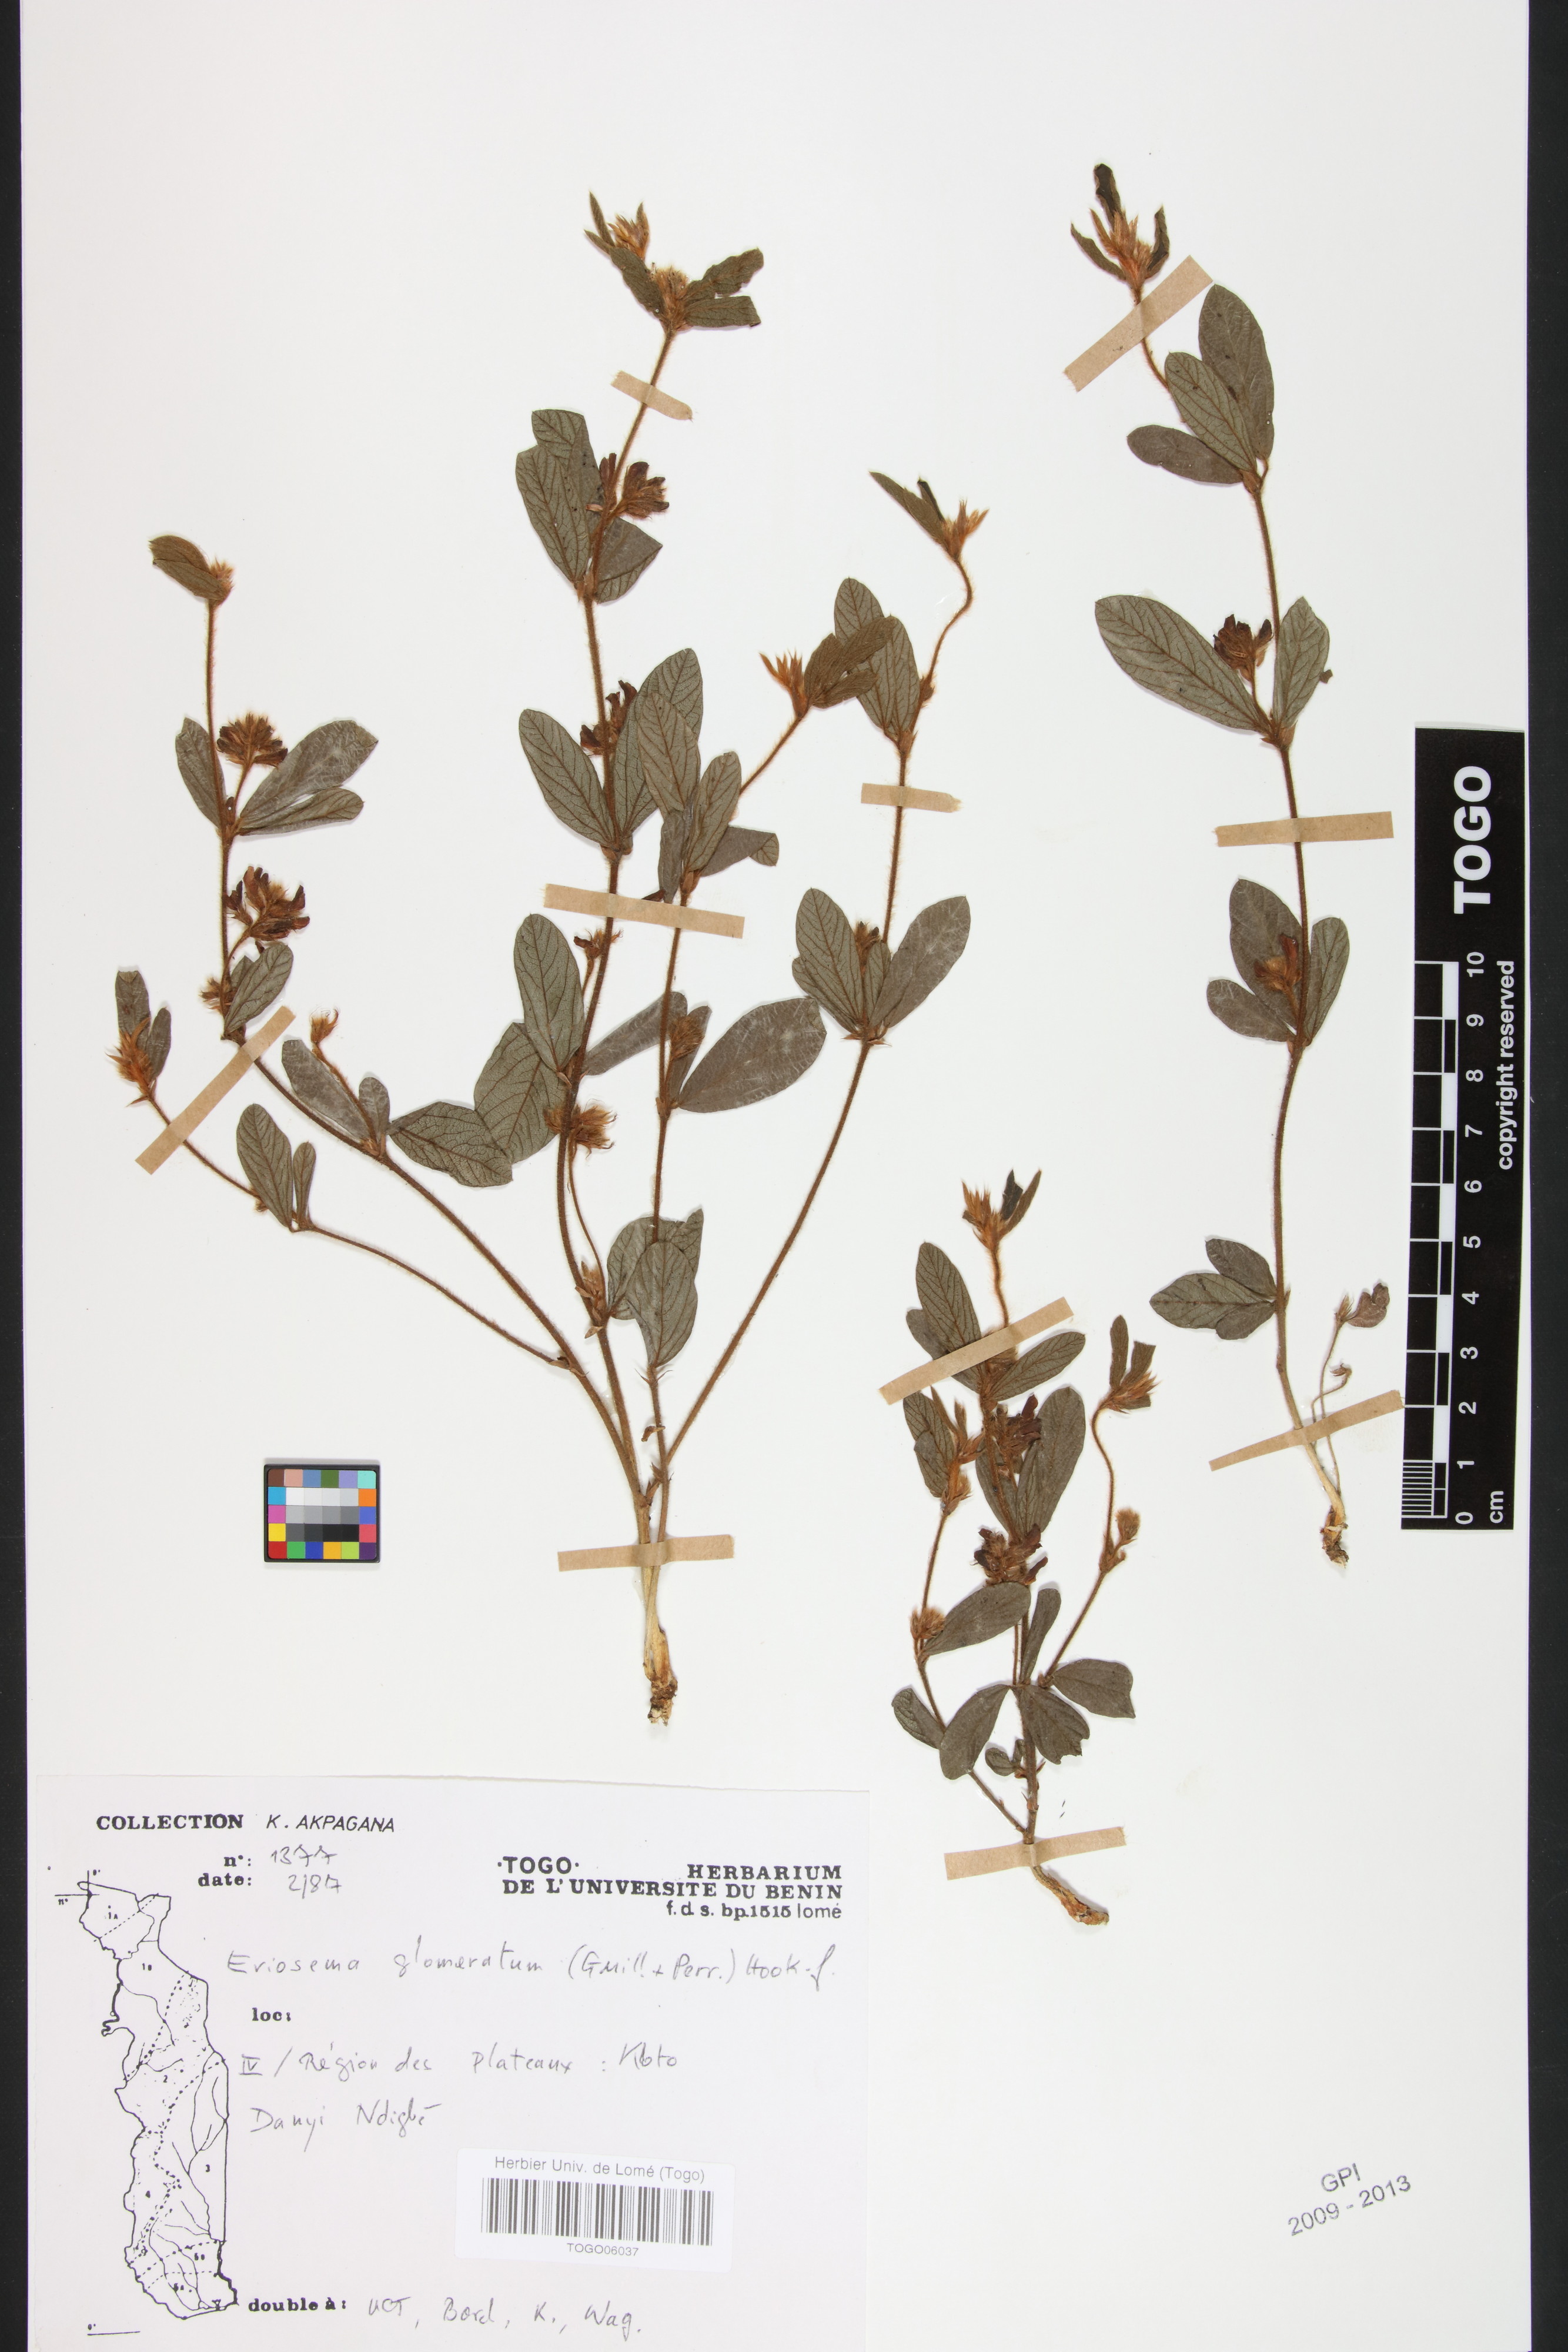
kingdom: Plantae
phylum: Tracheophyta
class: Magnoliopsida
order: Fabales
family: Fabaceae
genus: Eriosema
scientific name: Eriosema glomeratum
